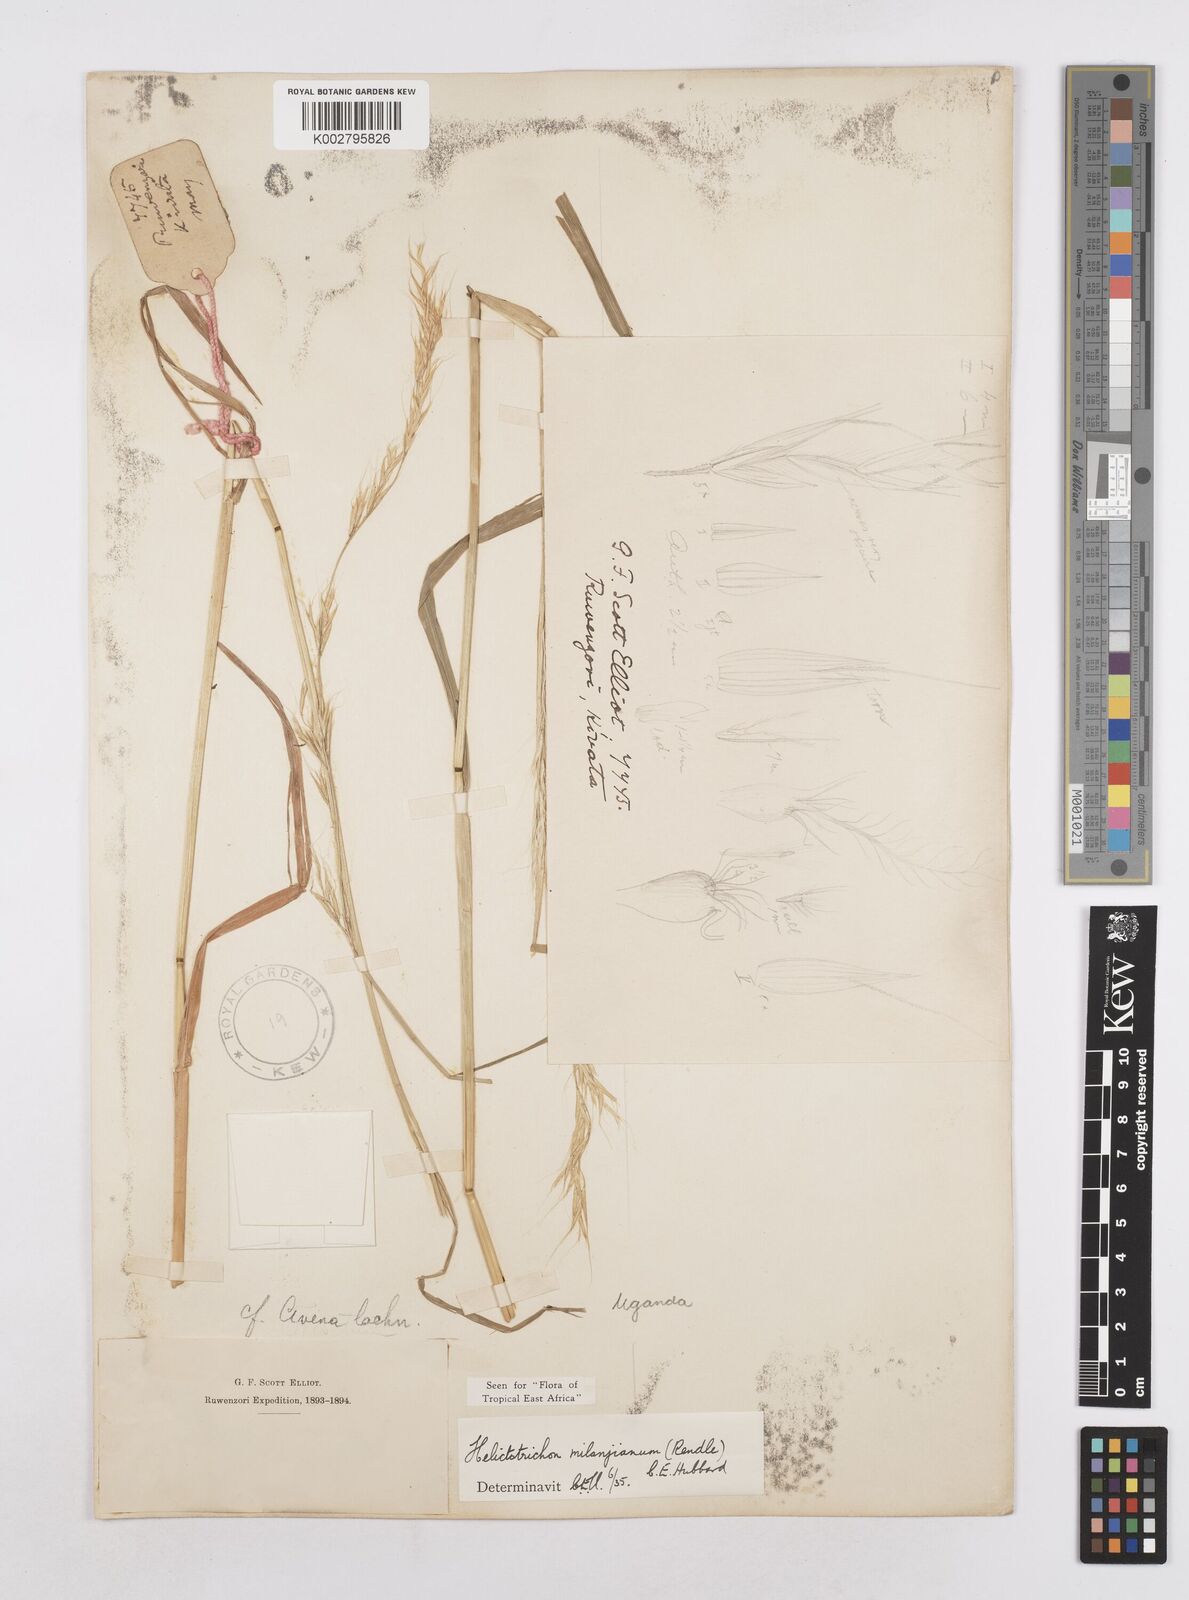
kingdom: Plantae
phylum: Tracheophyta
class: Liliopsida
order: Poales
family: Poaceae
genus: Trisetopsis
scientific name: Trisetopsis milanjiana
